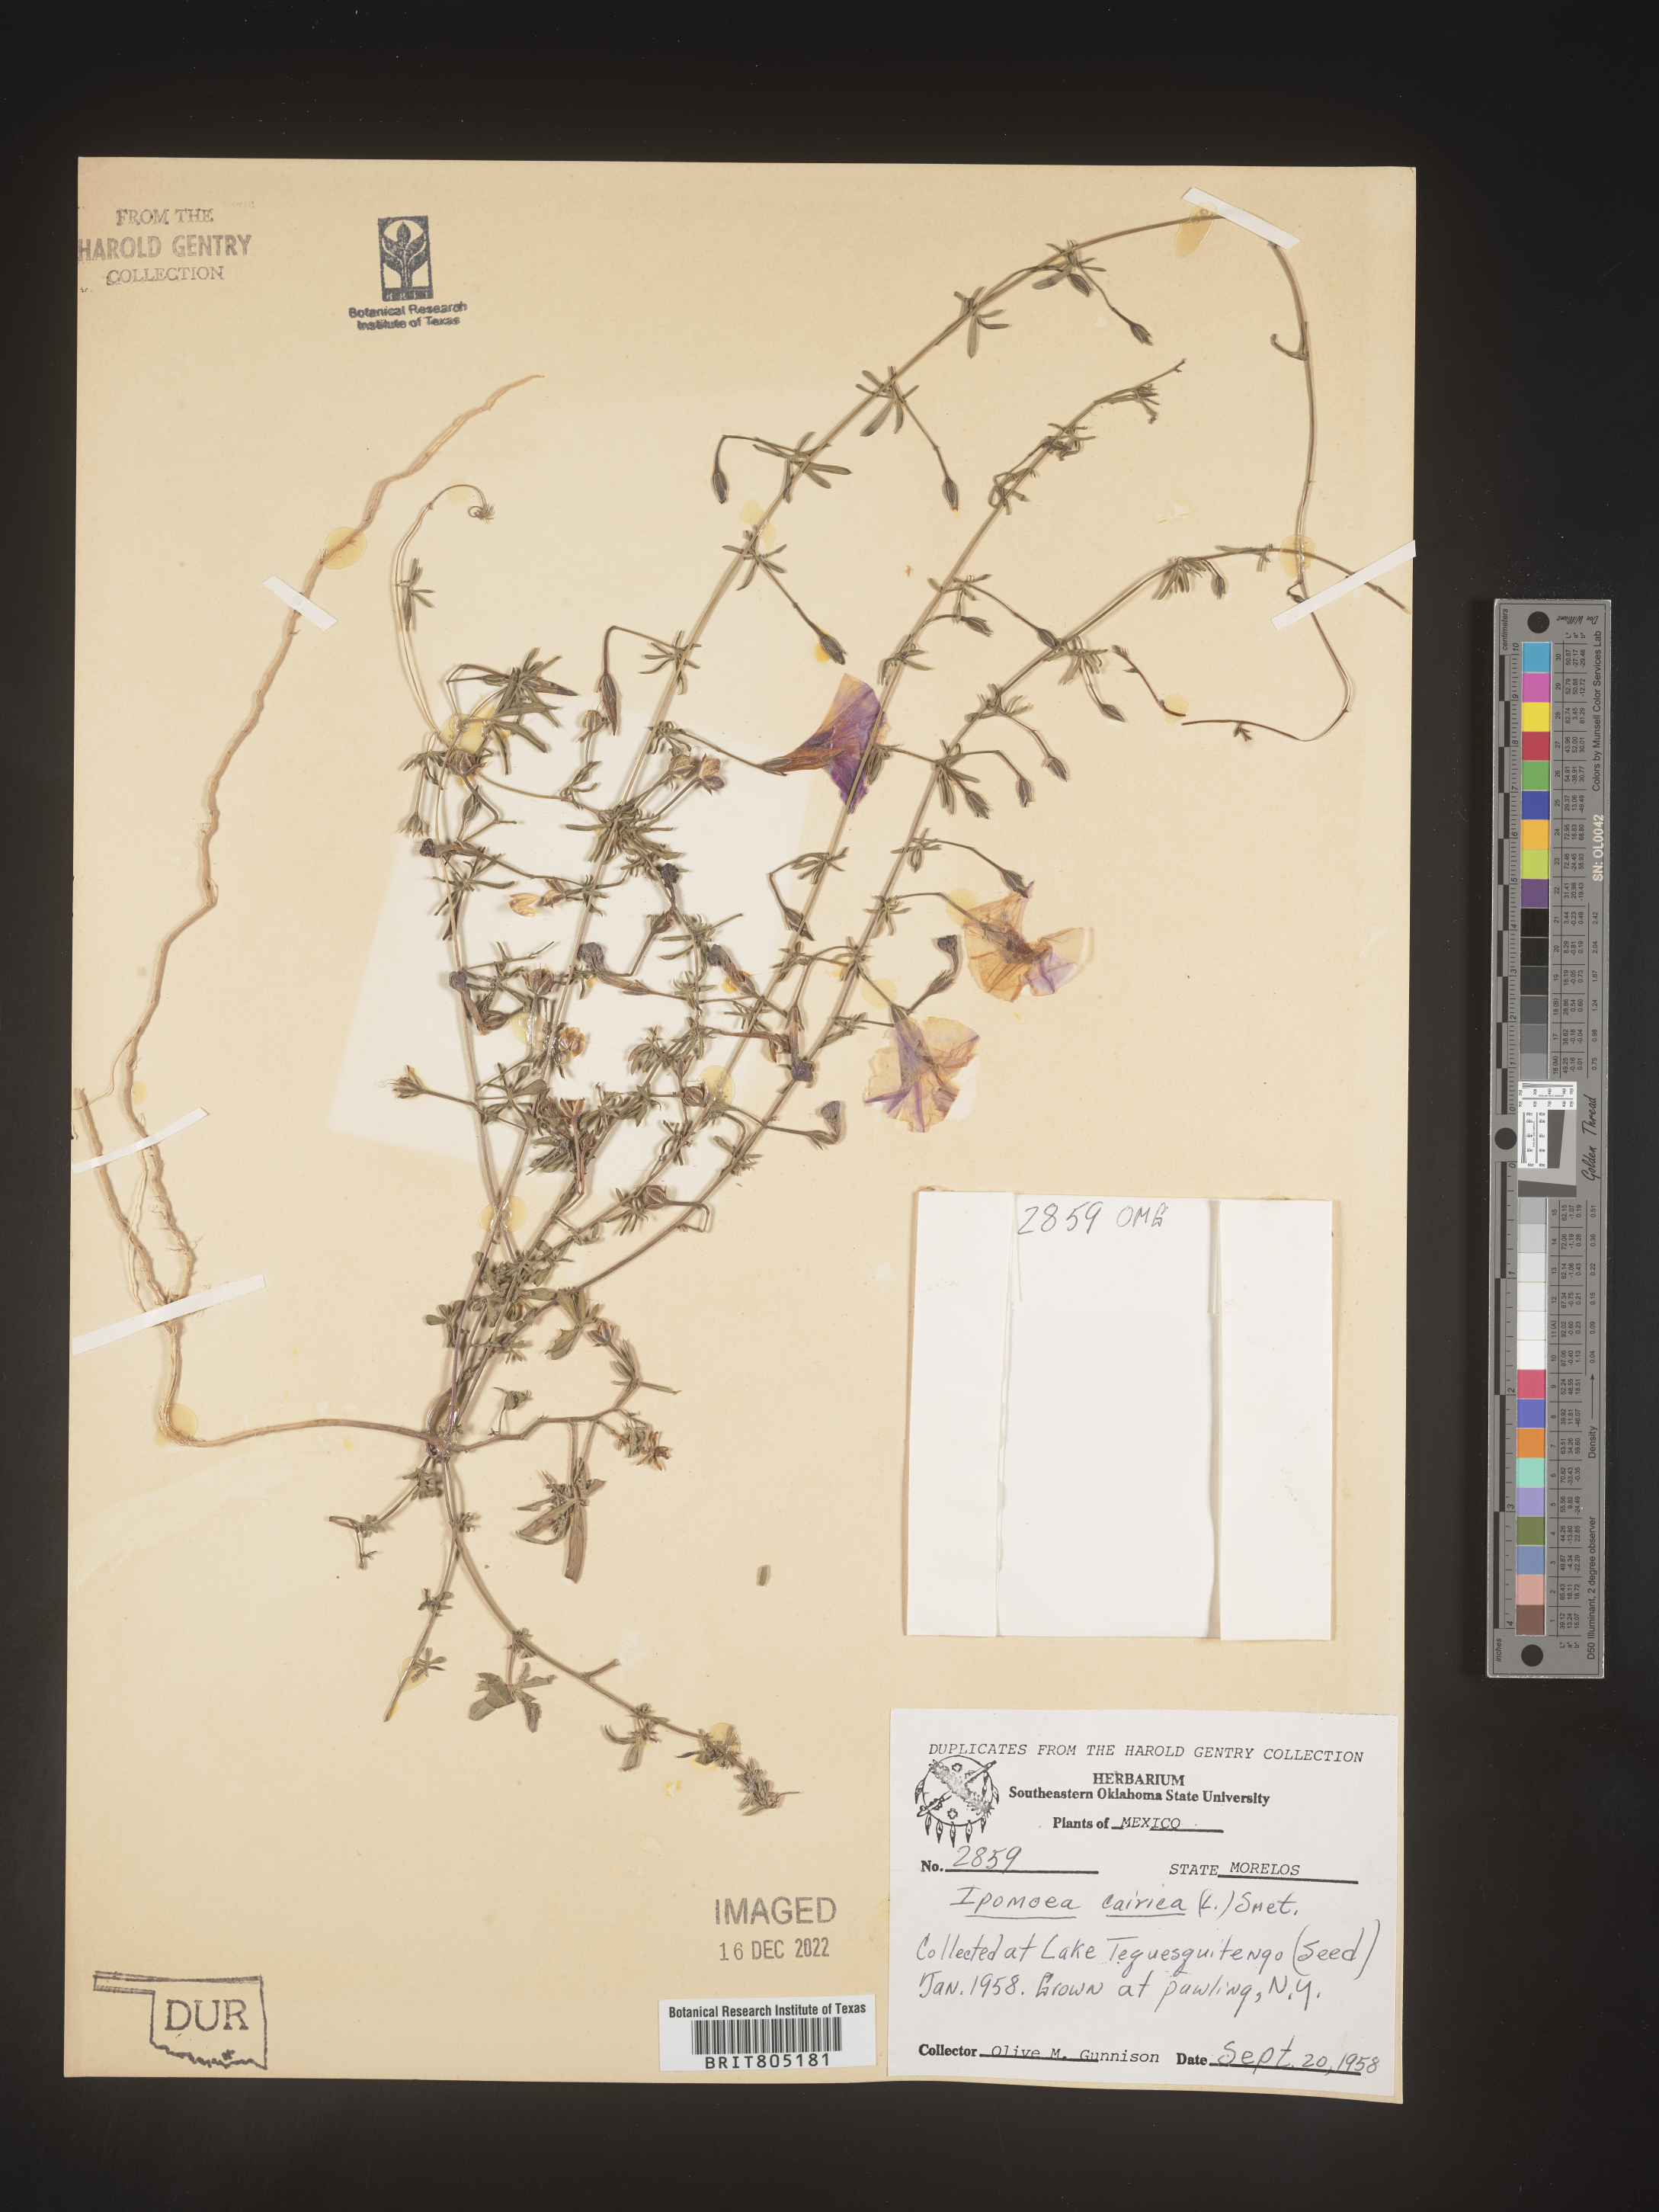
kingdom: Plantae
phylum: Tracheophyta
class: Magnoliopsida
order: Solanales
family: Convolvulaceae
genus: Ipomoea
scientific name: Ipomoea
